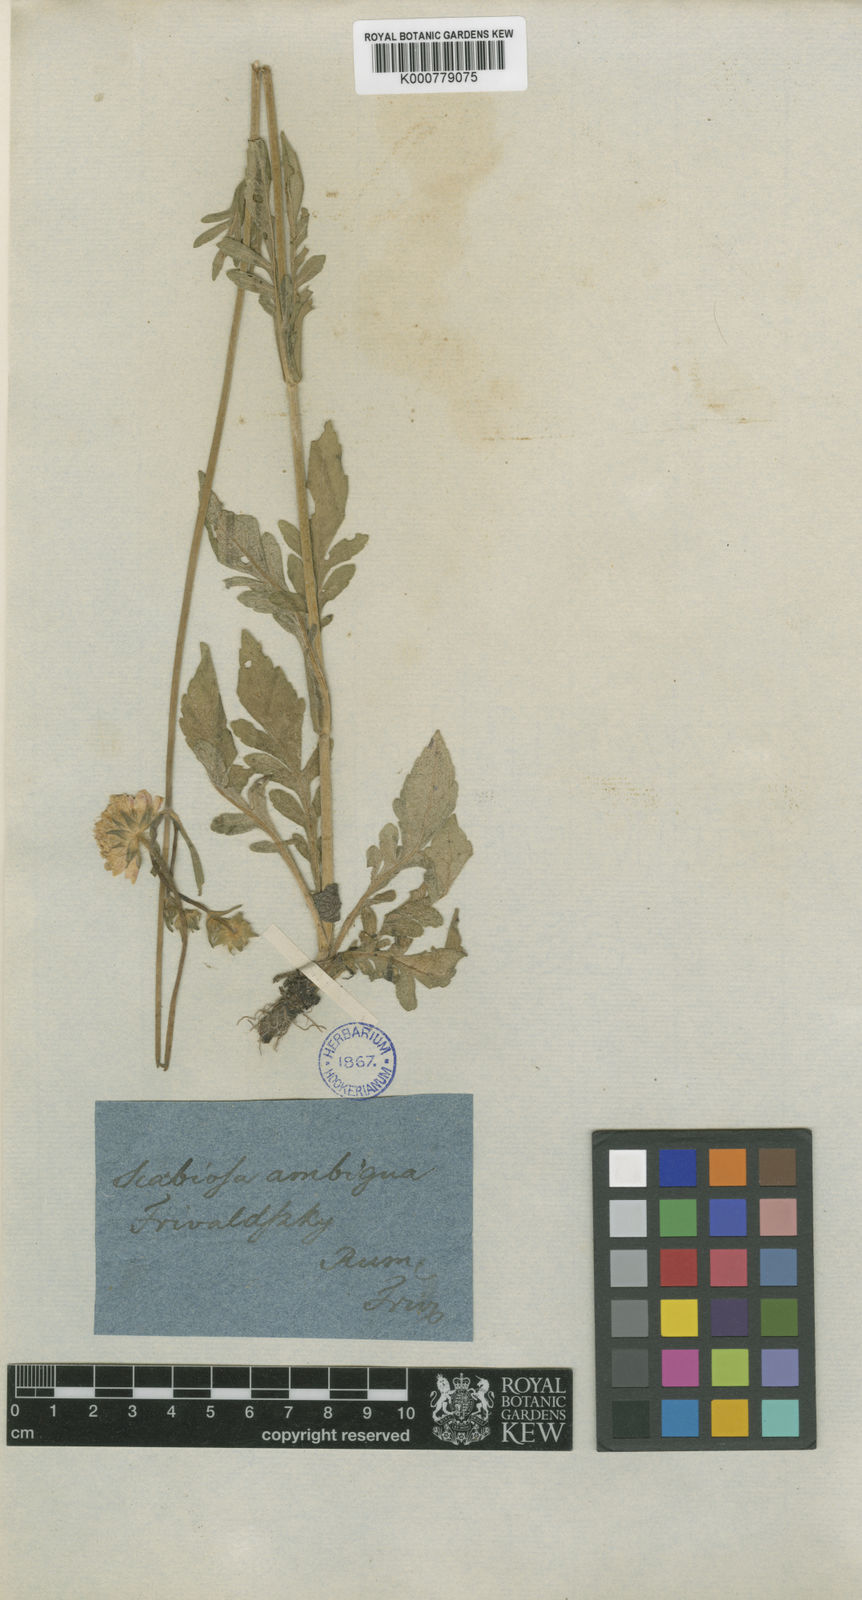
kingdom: Plantae
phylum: Tracheophyta
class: Magnoliopsida
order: Dipsacales
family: Caprifoliaceae
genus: Knautia
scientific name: Knautia ambigua
